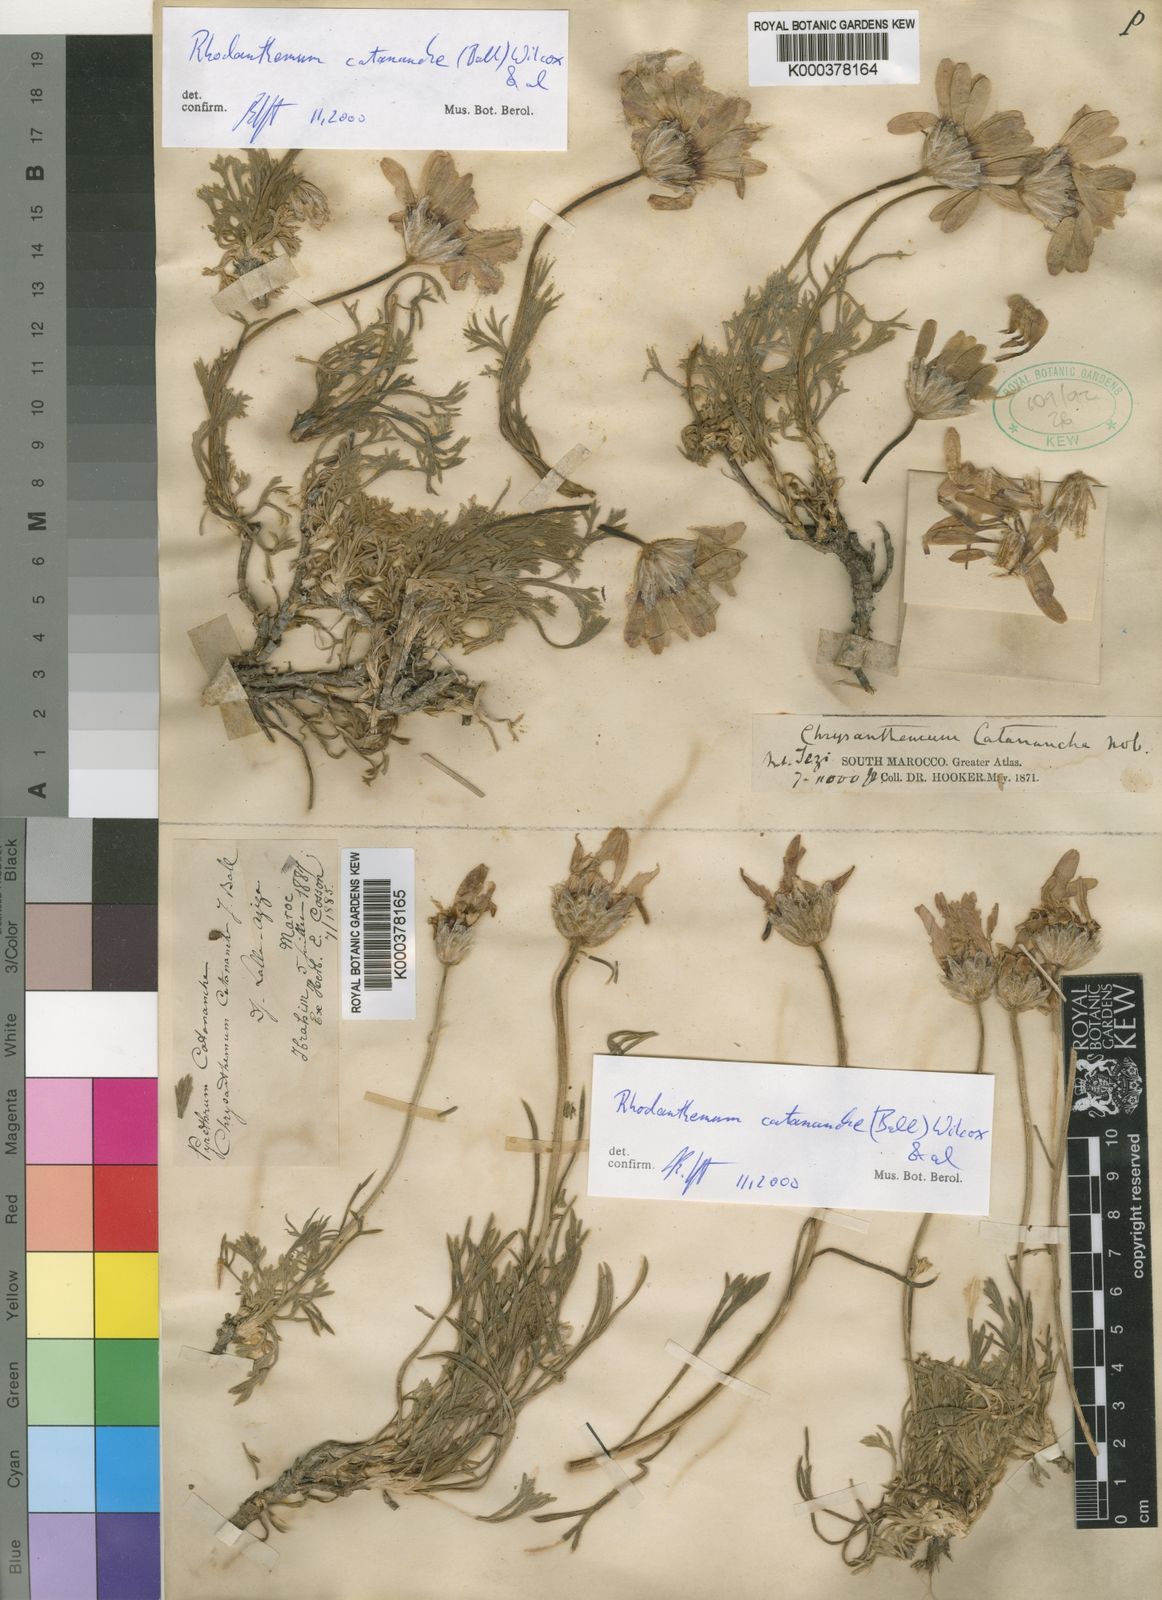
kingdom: Plantae
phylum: Tracheophyta
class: Magnoliopsida
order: Asterales
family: Asteraceae
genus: Rhodanthemum
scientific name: Rhodanthemum
